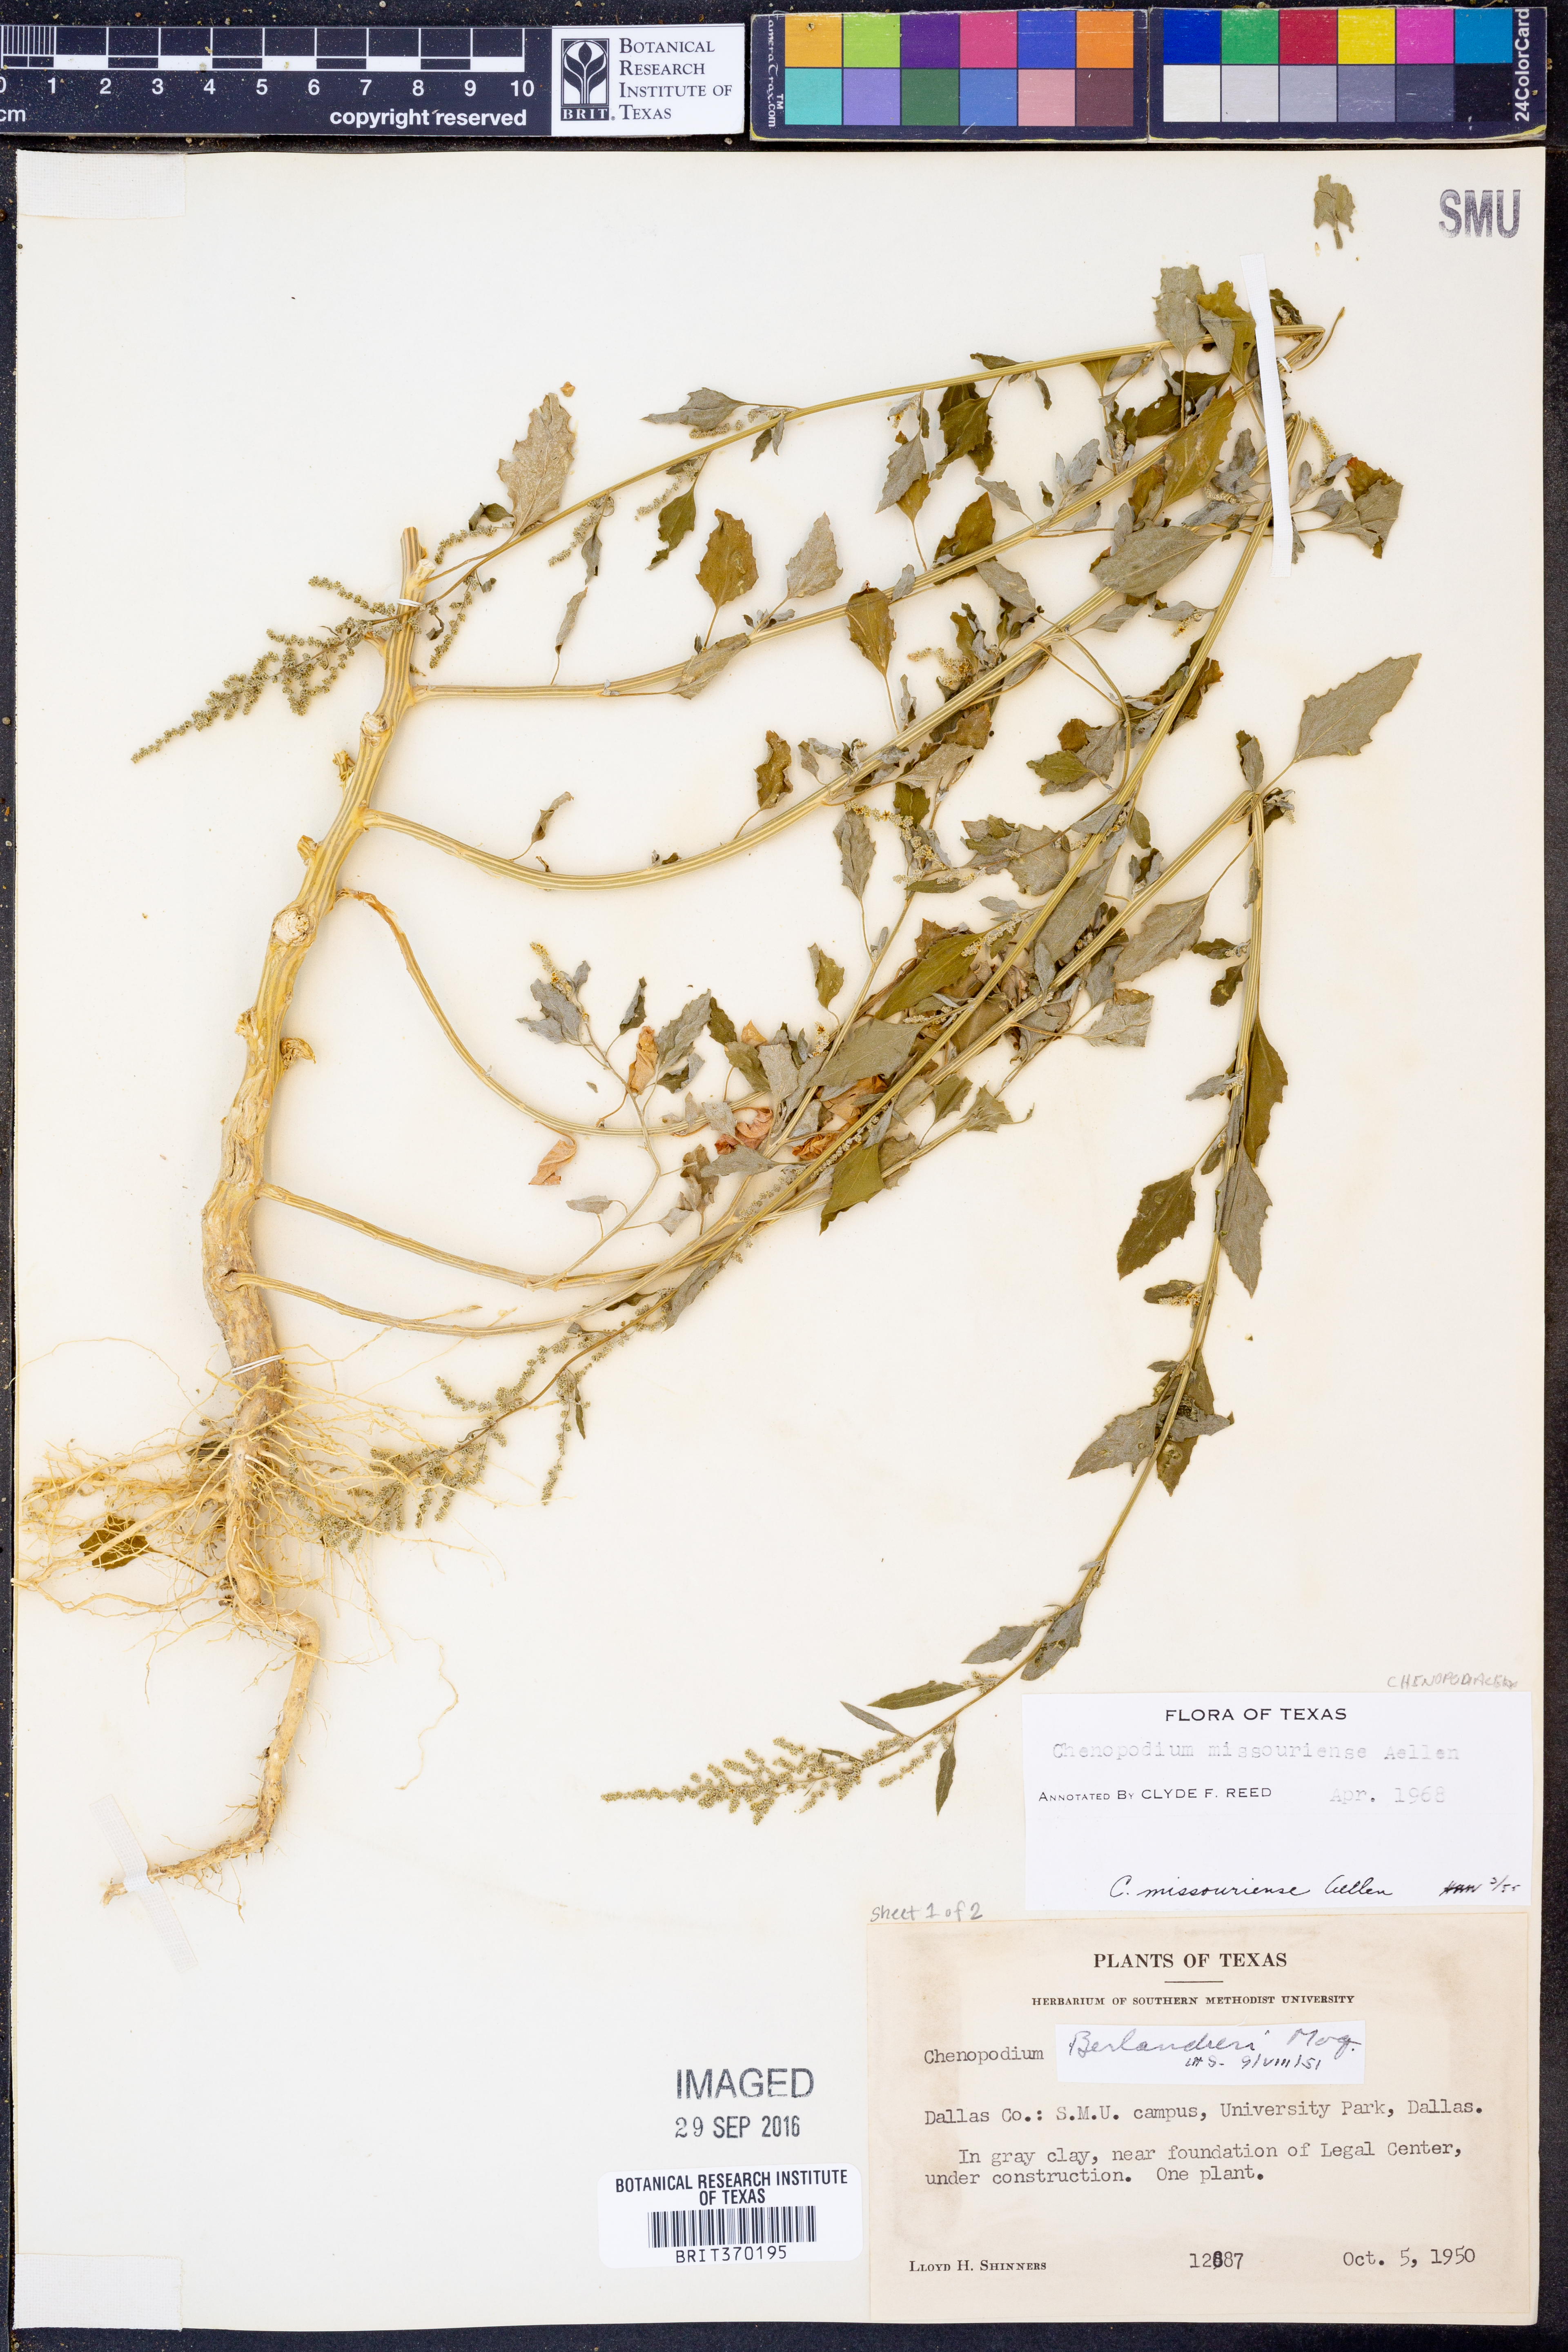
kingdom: Plantae
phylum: Tracheophyta
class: Magnoliopsida
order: Caryophyllales
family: Amaranthaceae
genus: Chenopodium
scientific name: Chenopodium album
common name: Fat-hen
